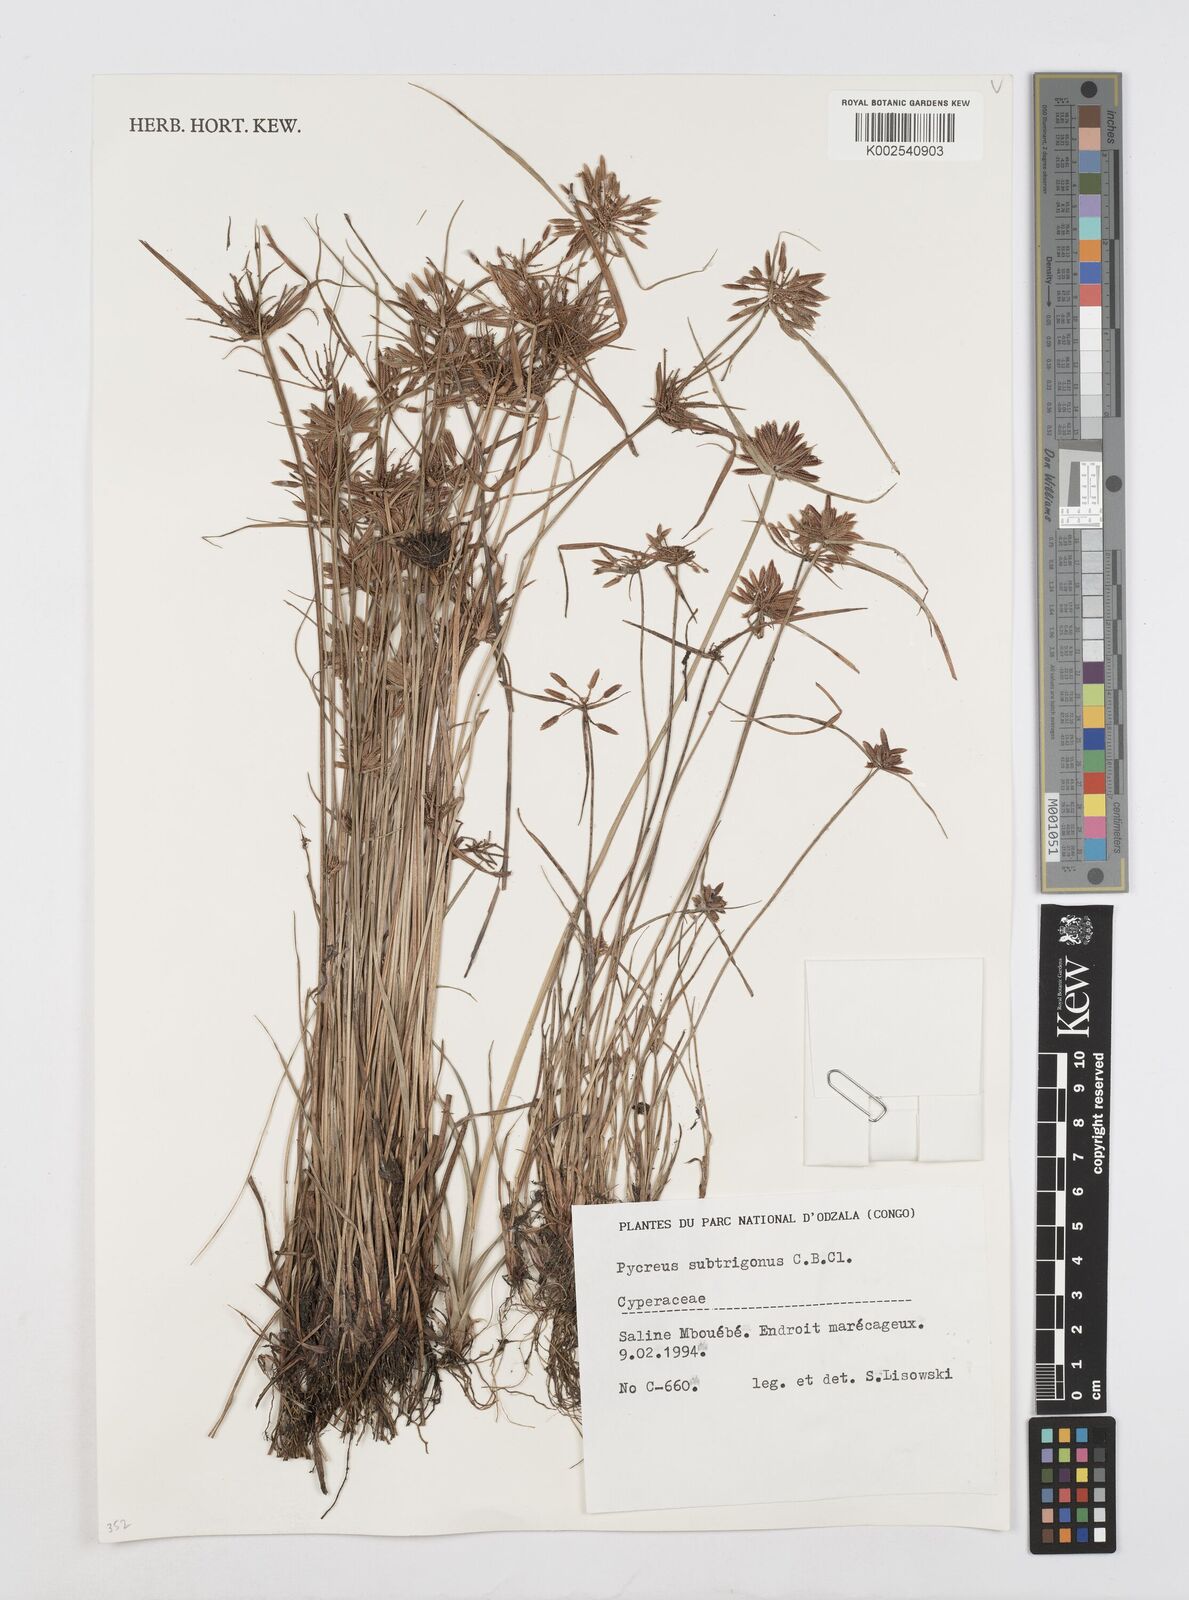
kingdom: Plantae
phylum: Tracheophyta
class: Liliopsida
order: Poales
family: Cyperaceae
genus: Cyperus
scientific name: Cyperus subtrigonus
